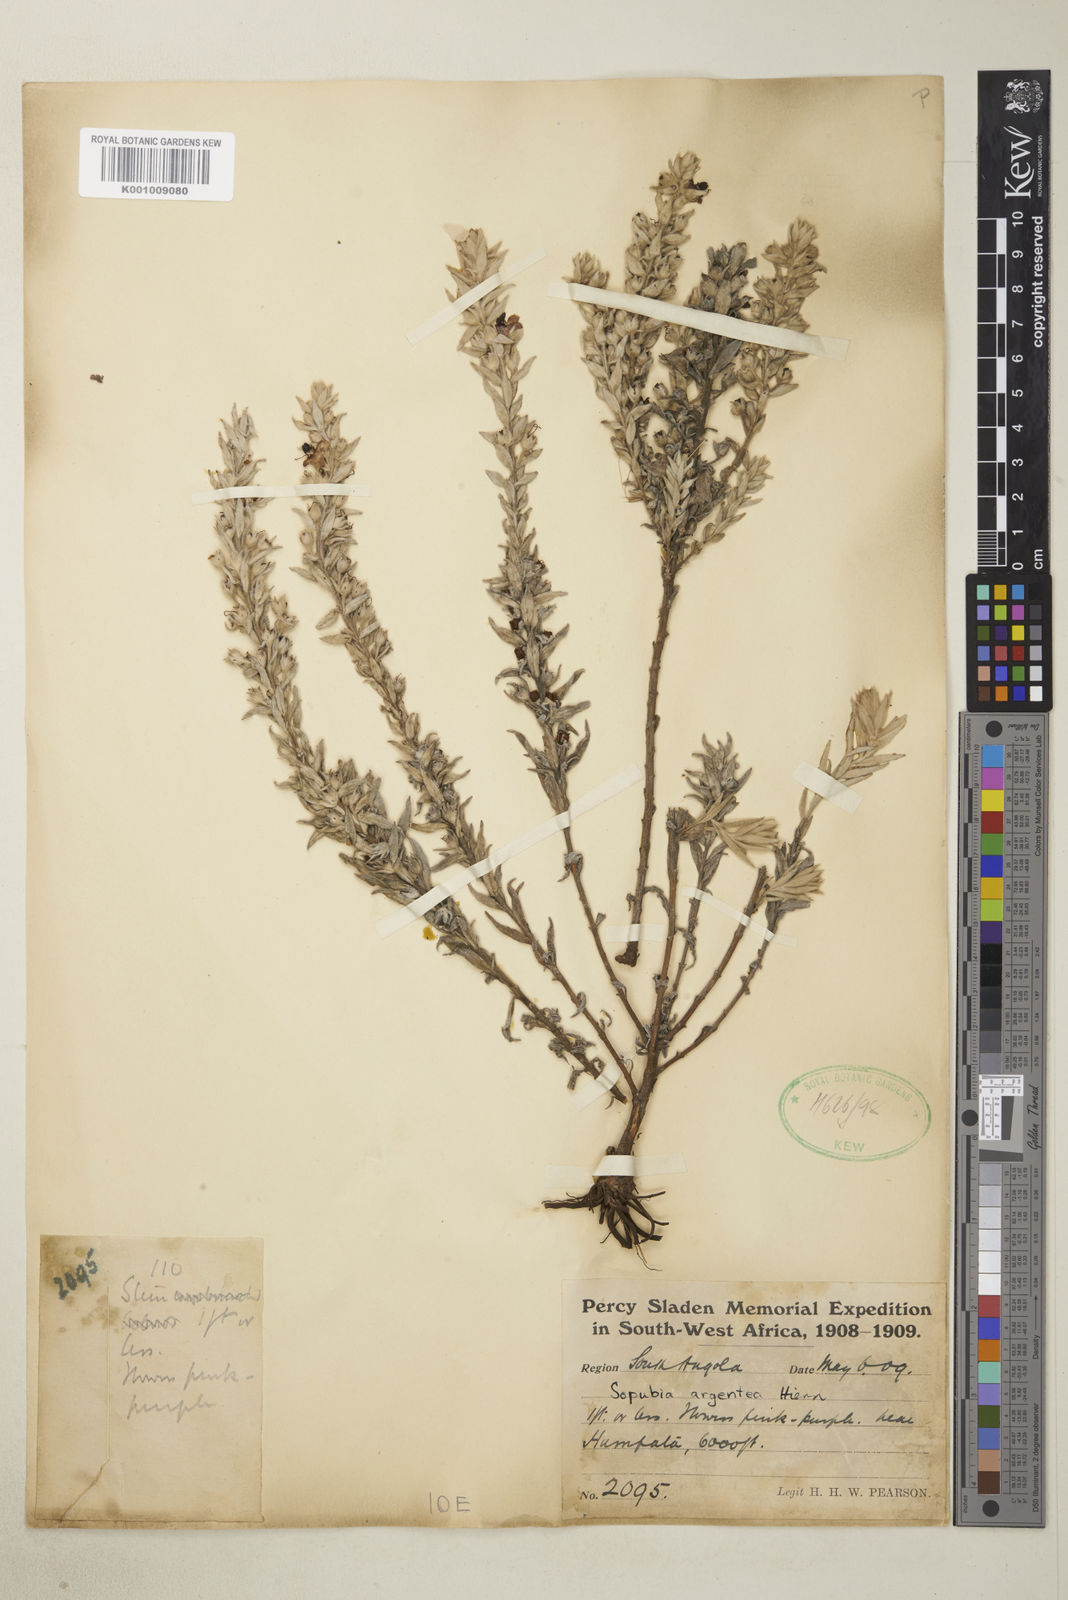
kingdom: Plantae
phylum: Tracheophyta
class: Magnoliopsida
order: Lamiales
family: Orobanchaceae
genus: Sopubia
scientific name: Sopubia argentea
